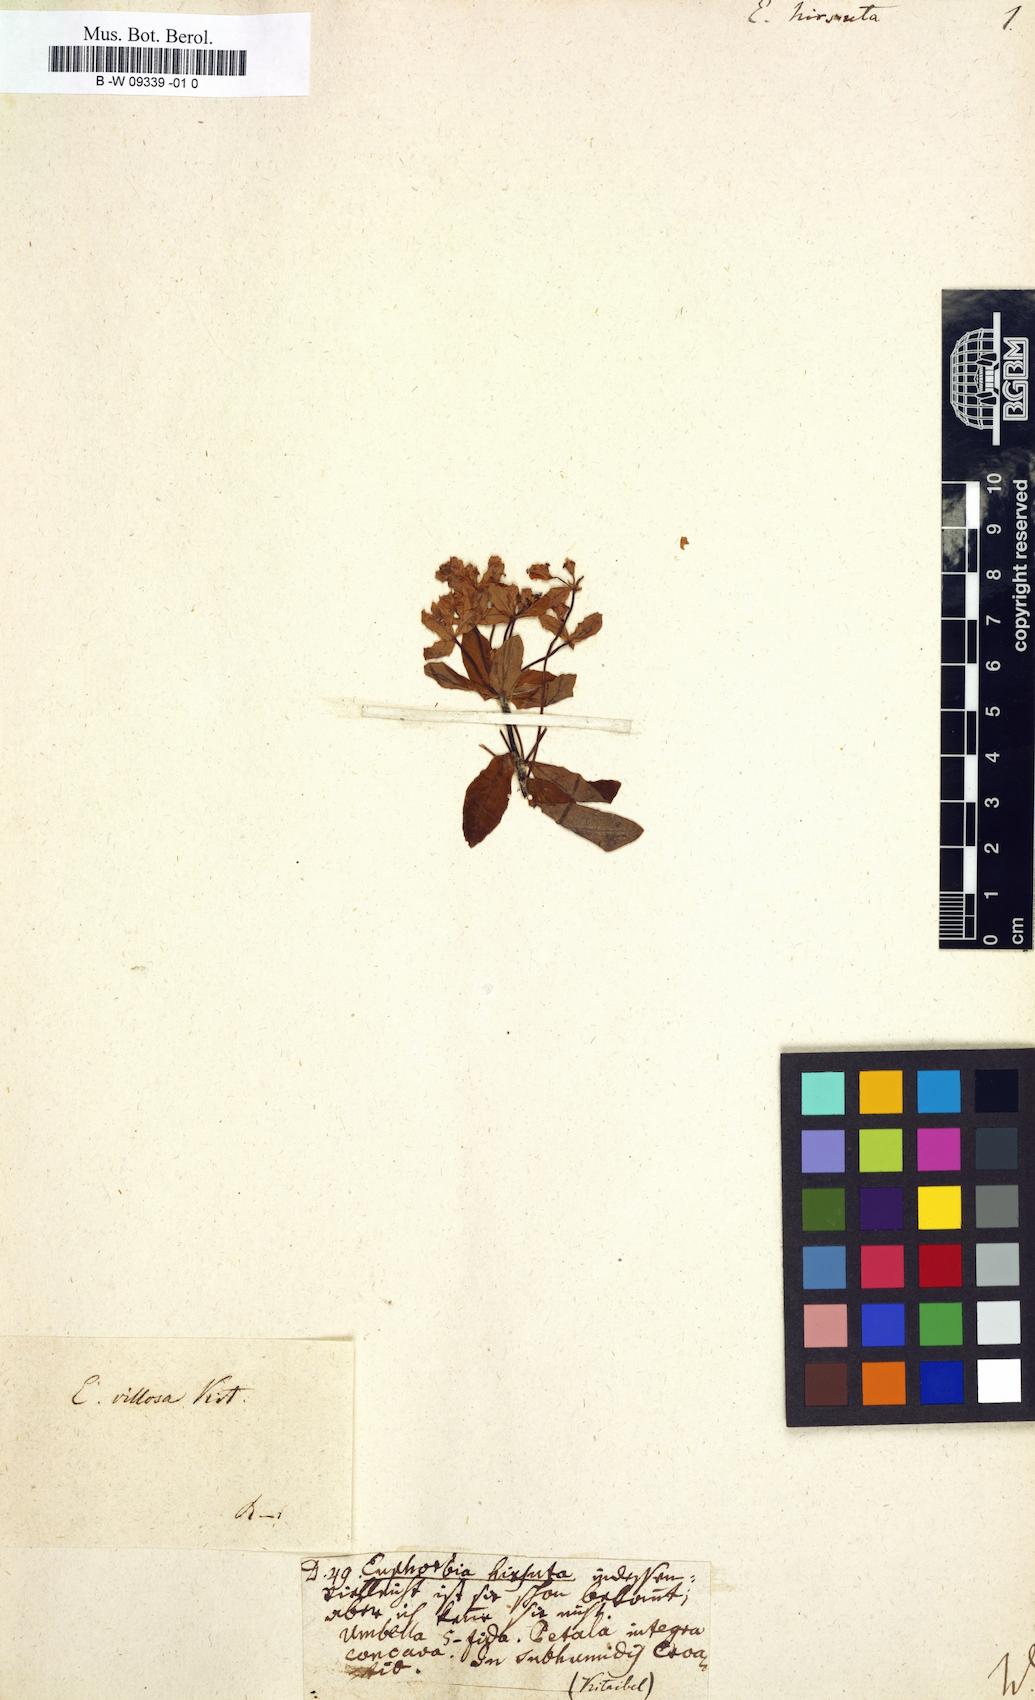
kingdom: Plantae
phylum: Tracheophyta
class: Magnoliopsida
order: Malpighiales
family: Euphorbiaceae
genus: Euphorbia
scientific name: Euphorbia hirsuta
